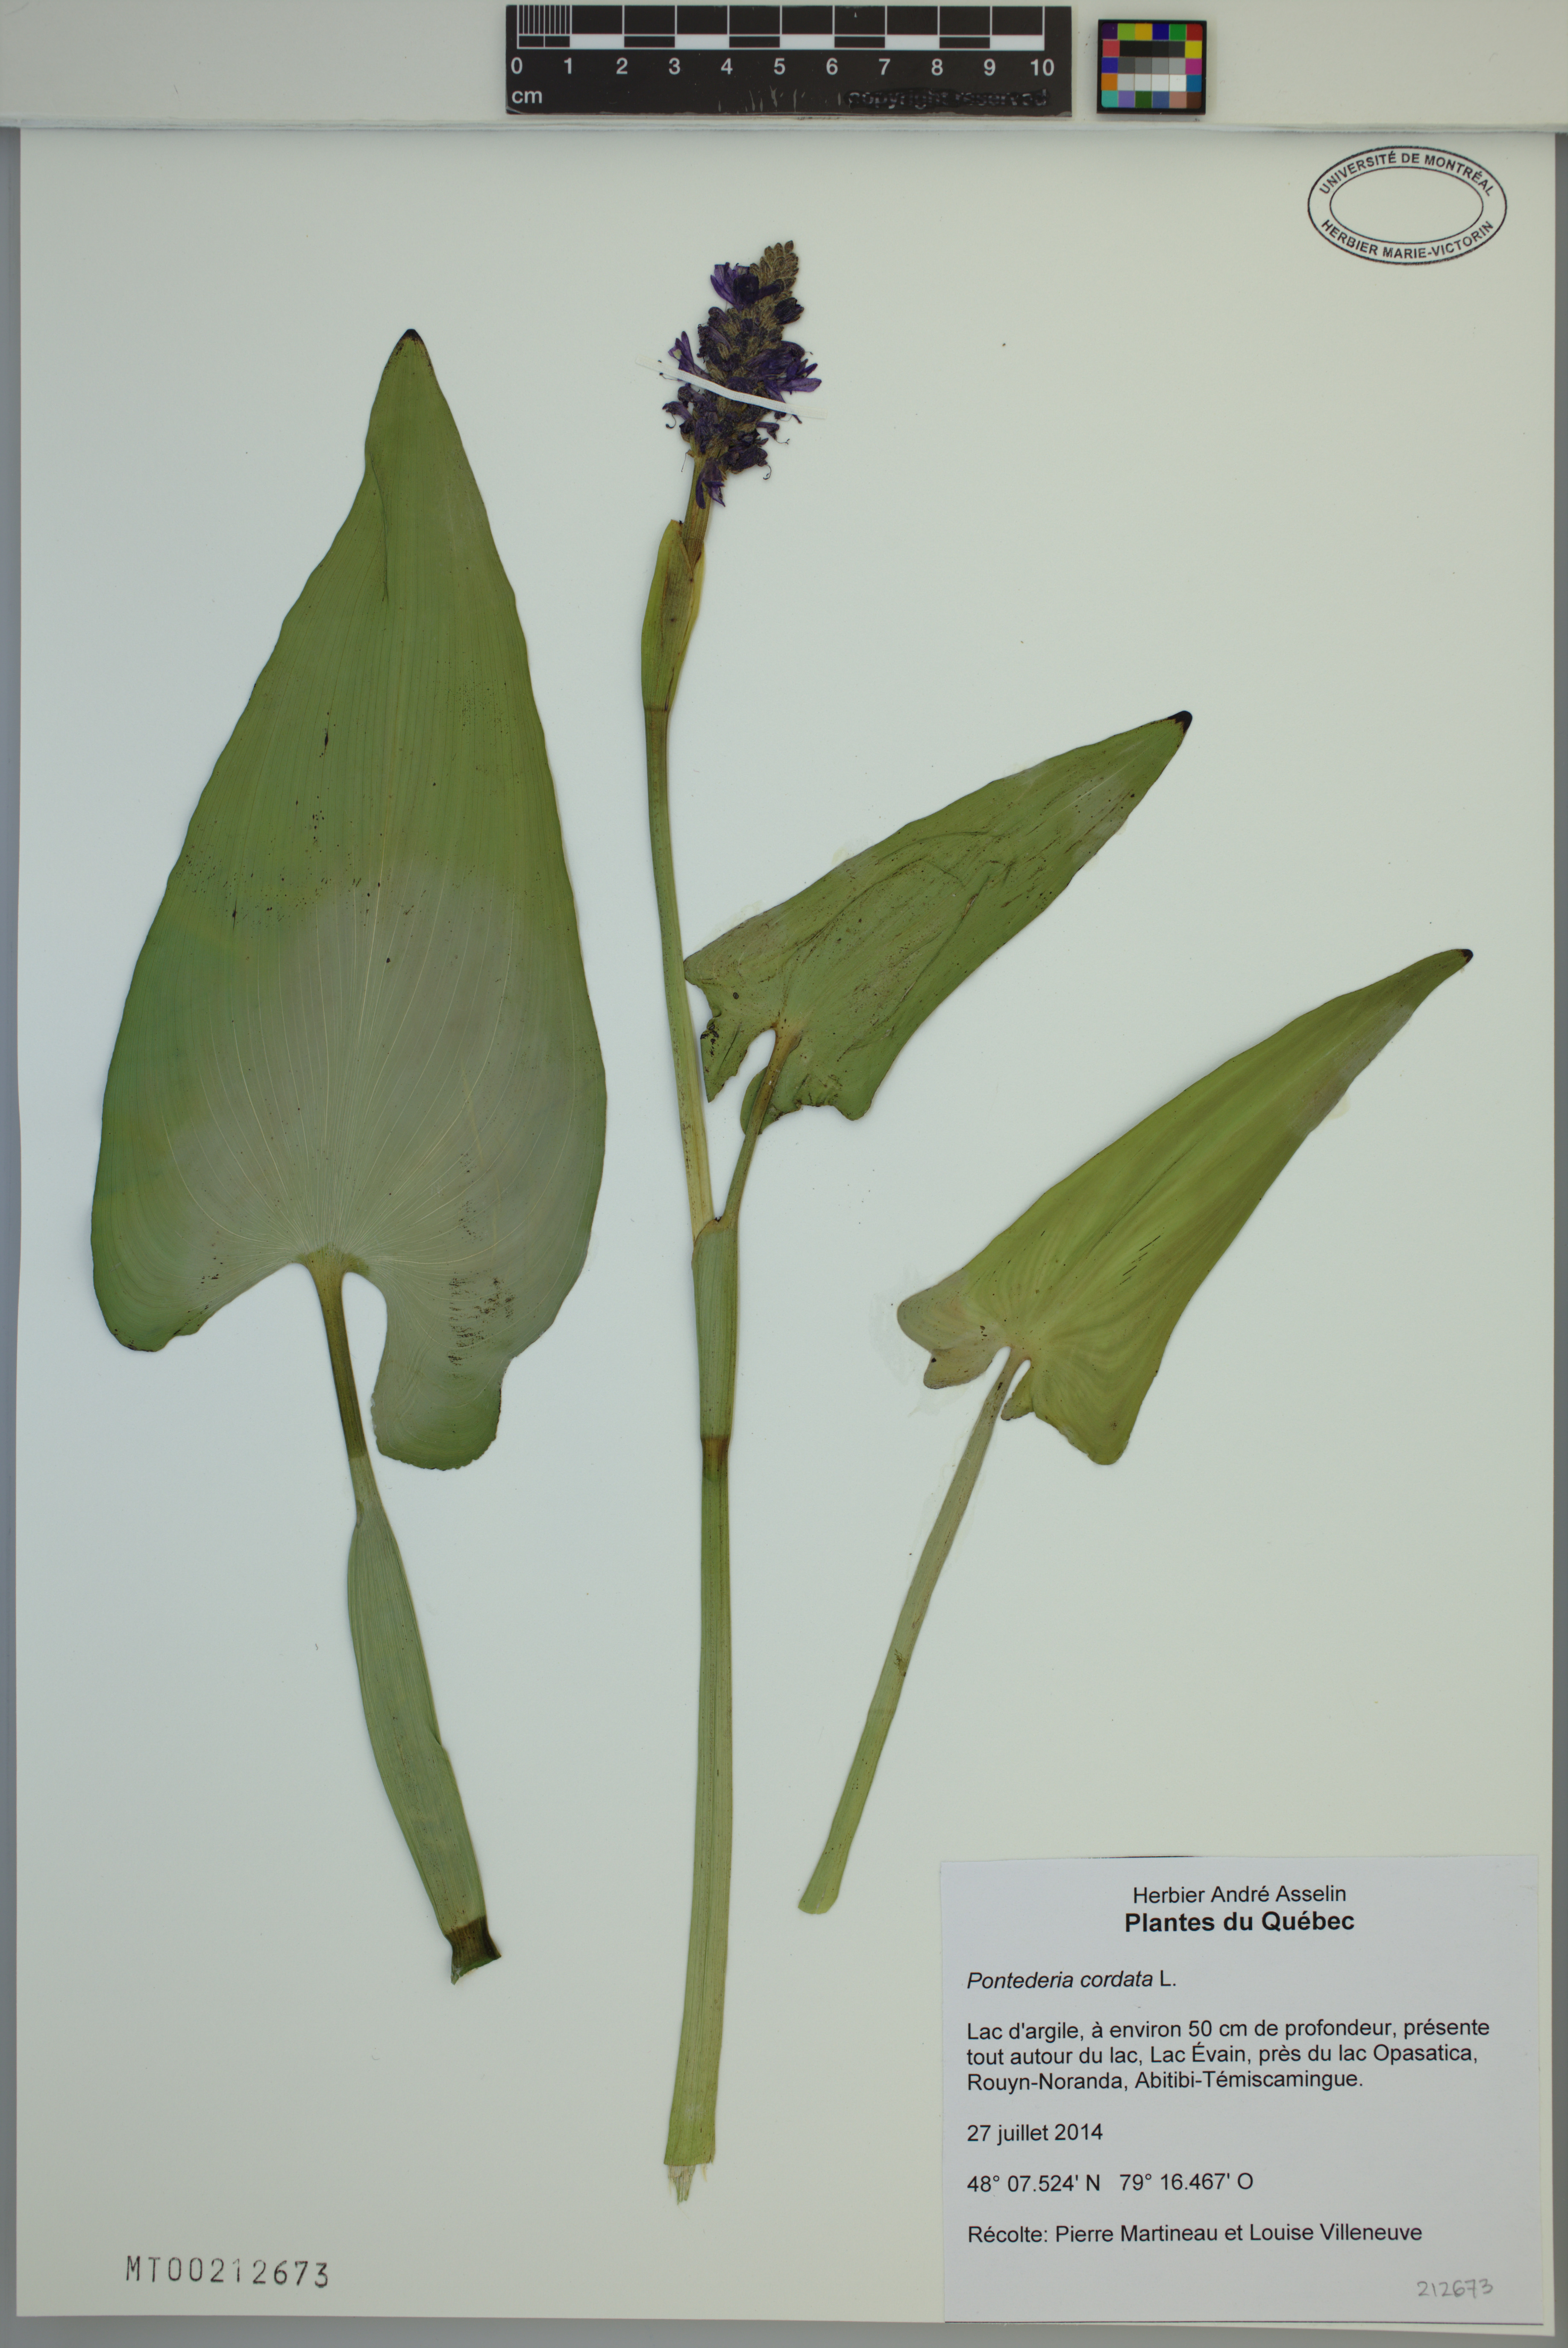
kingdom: Plantae
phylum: Tracheophyta
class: Liliopsida
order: Commelinales
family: Pontederiaceae
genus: Pontederia
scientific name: Pontederia cordata
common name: Pickerelweed
